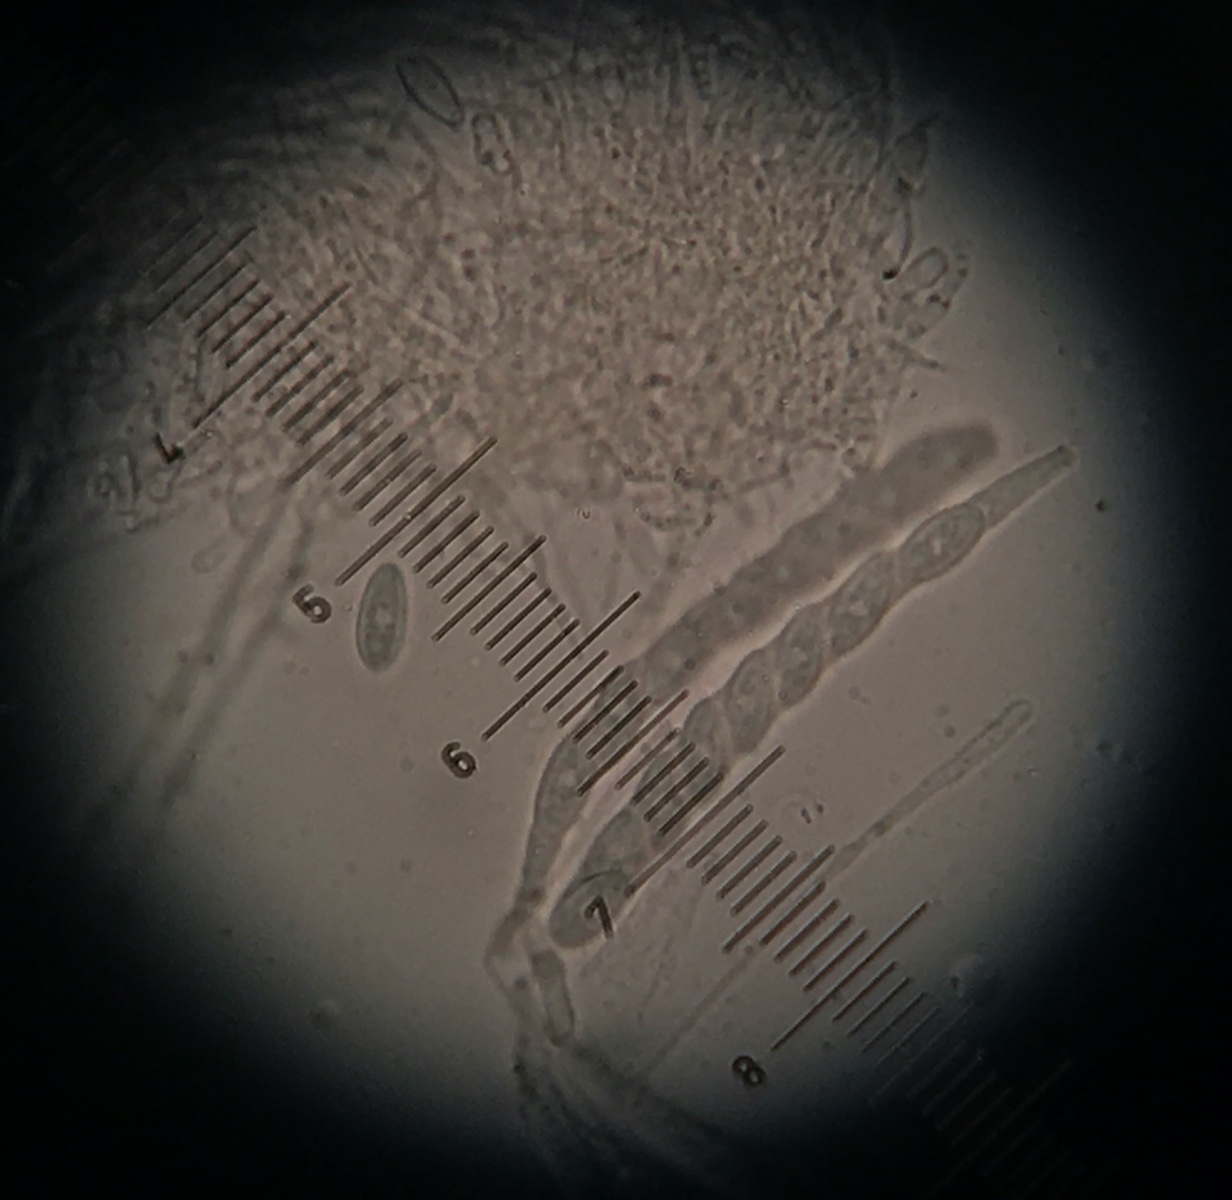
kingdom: Fungi
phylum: Ascomycota
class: Leotiomycetes
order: Helotiales
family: Lachnaceae
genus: Lachnellula
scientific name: Lachnellula
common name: frynseskive
